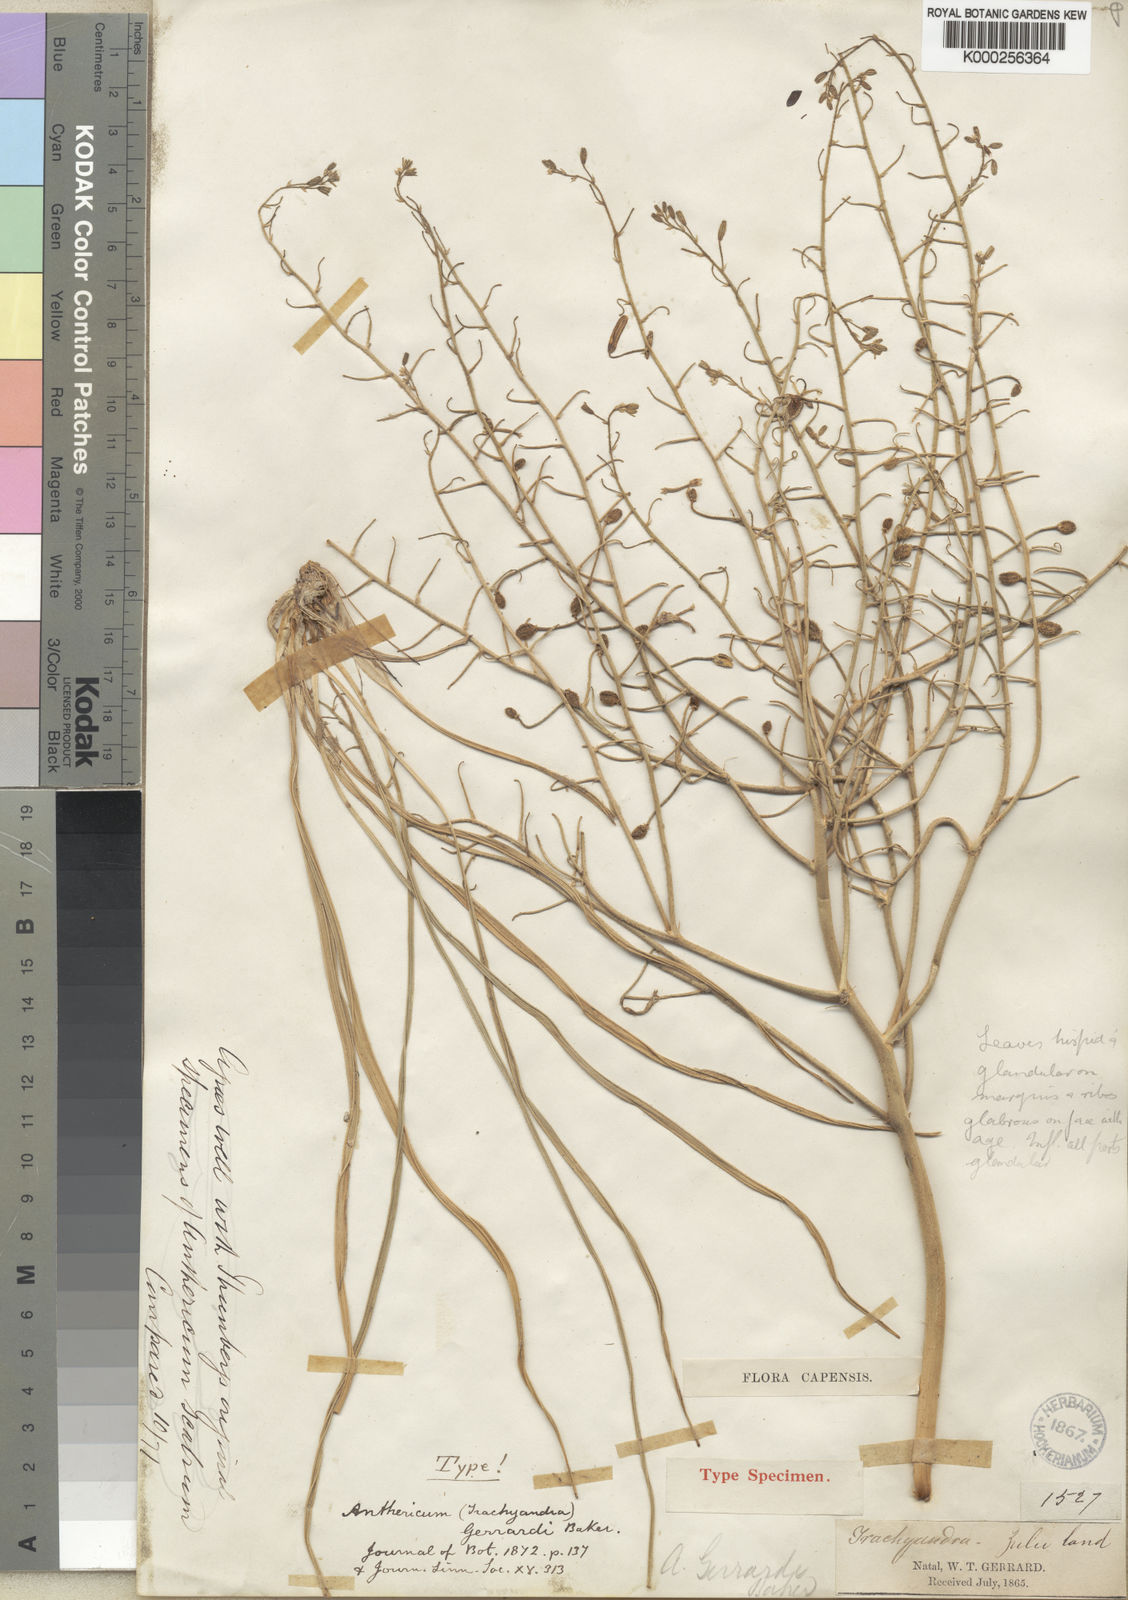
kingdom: Plantae
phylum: Tracheophyta
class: Liliopsida
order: Asparagales
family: Asphodelaceae
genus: Trachyandra
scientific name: Trachyandra gerrardii
